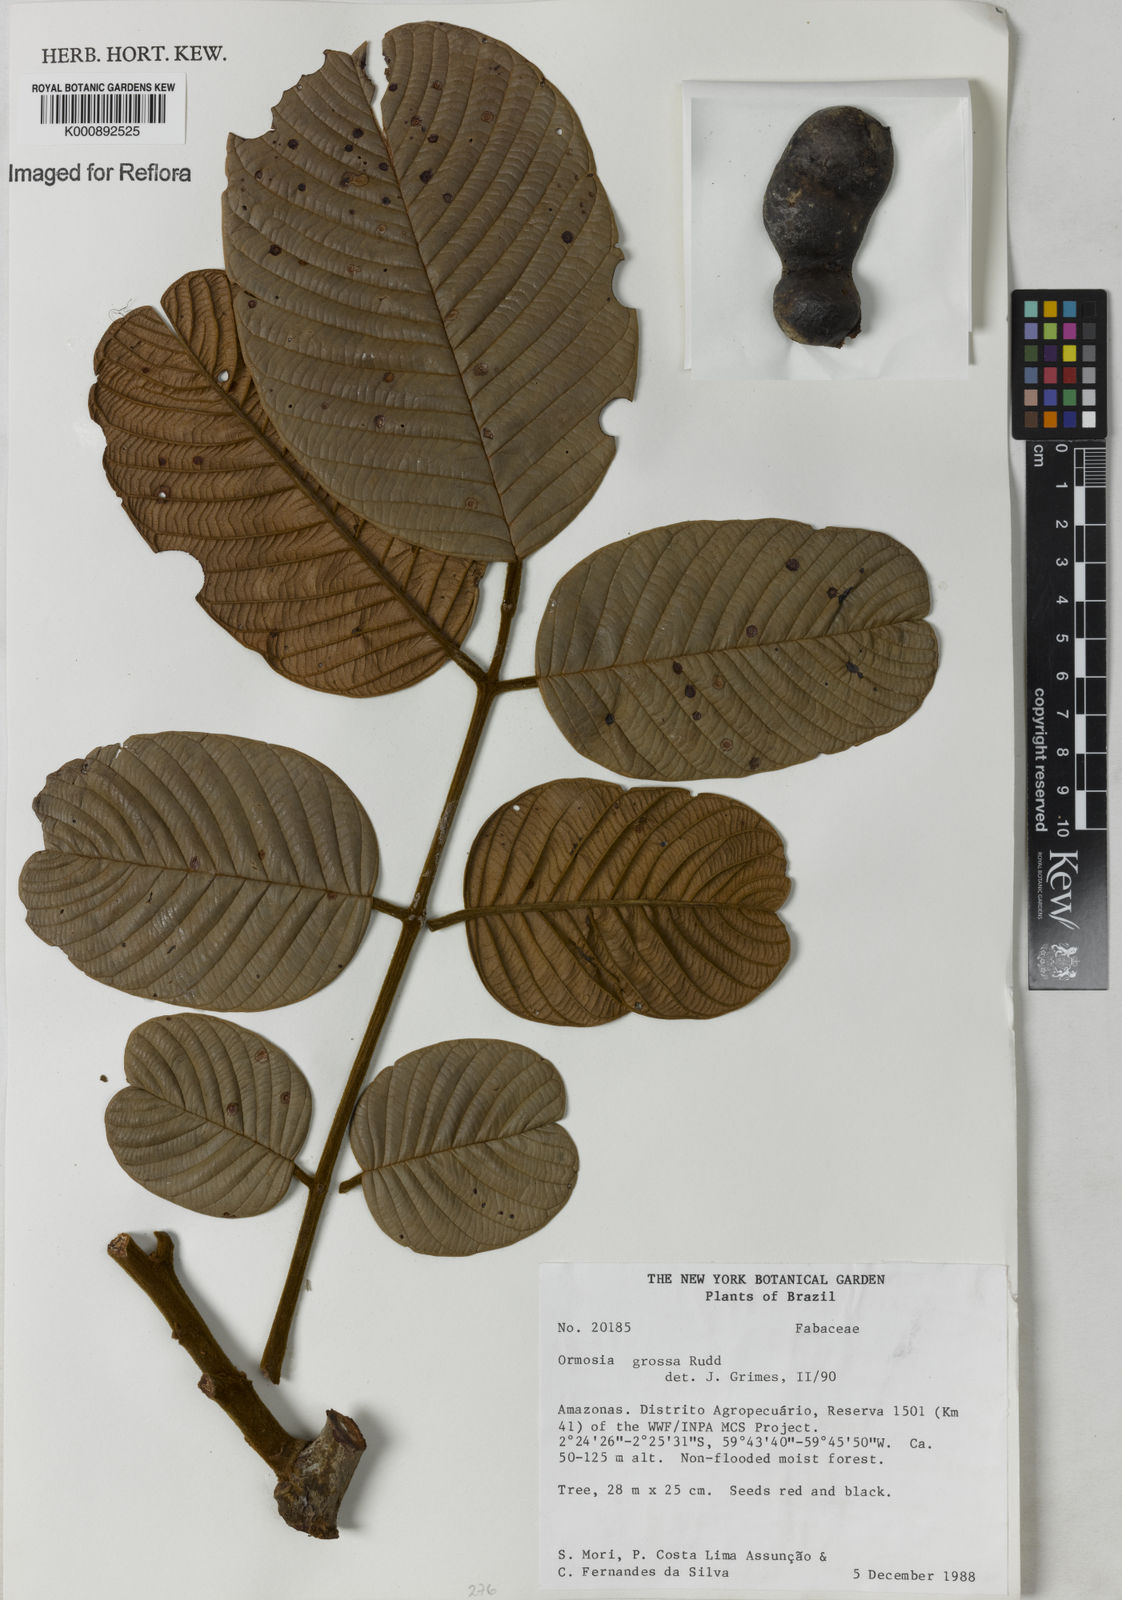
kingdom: Plantae
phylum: Tracheophyta
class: Magnoliopsida
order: Fabales
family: Fabaceae
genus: Ormosia
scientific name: Ormosia grossa
